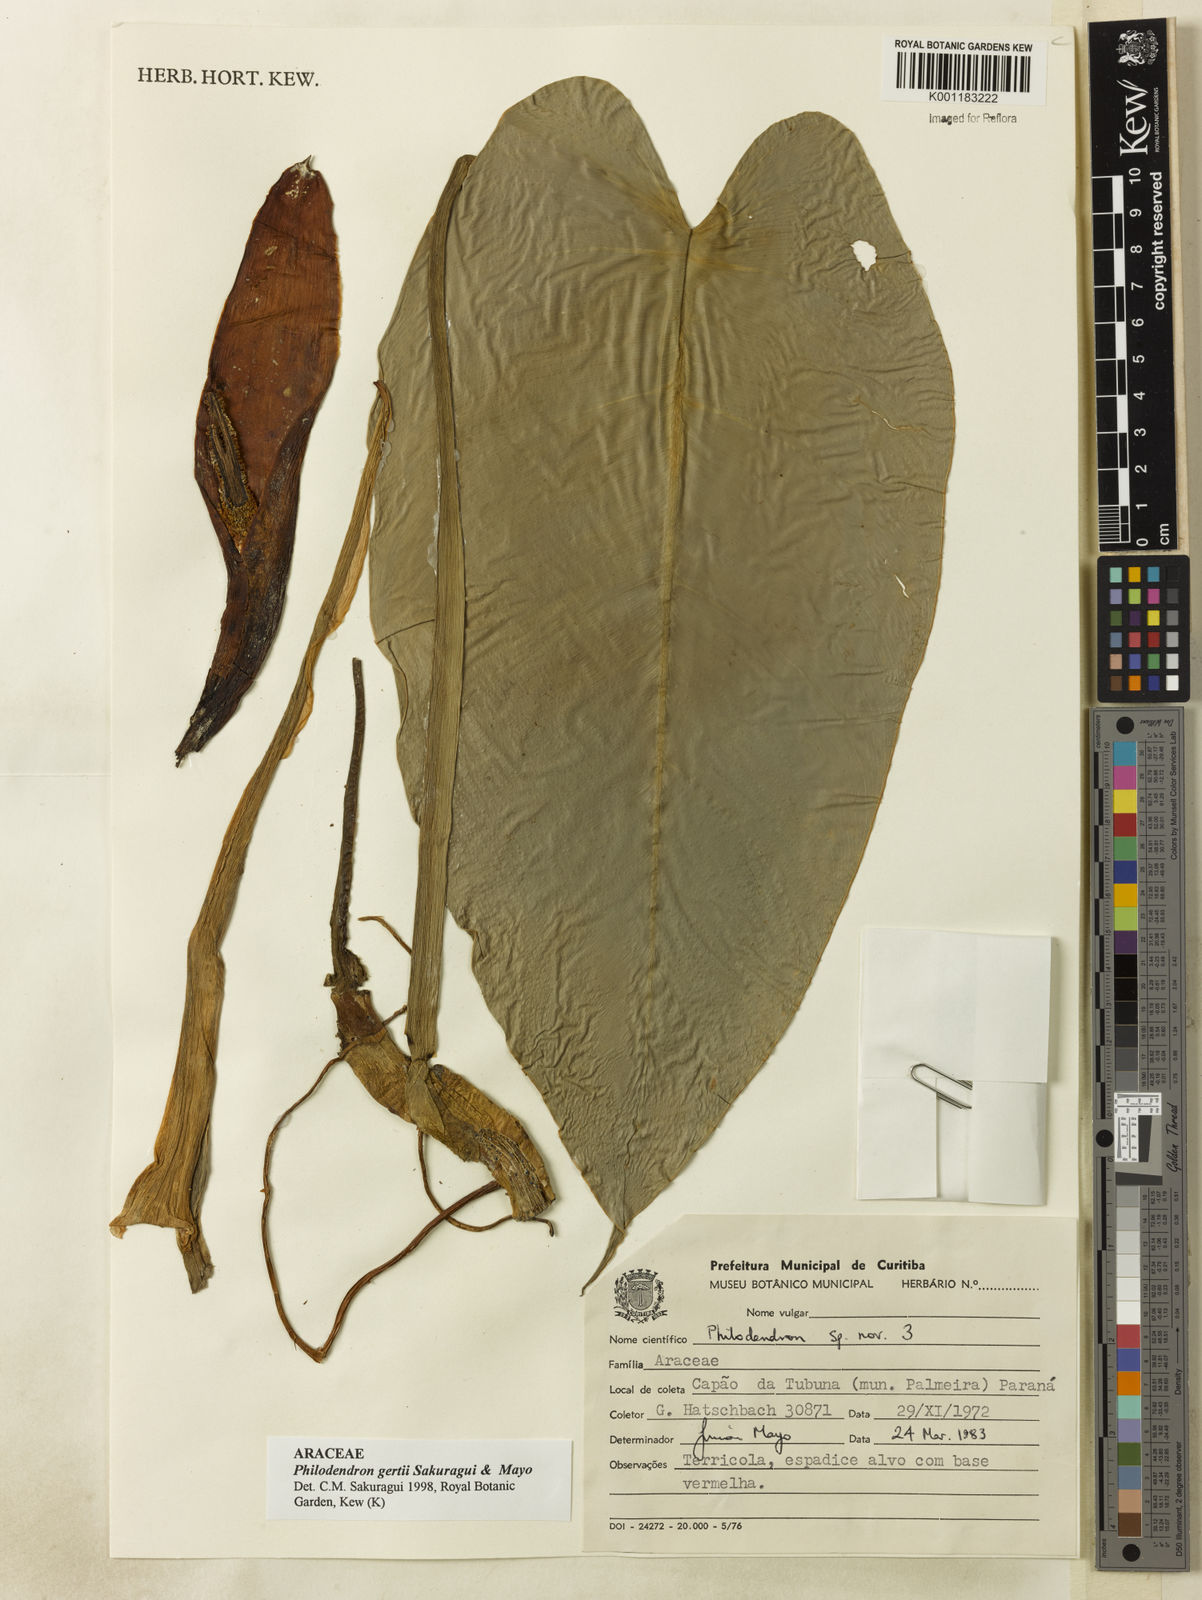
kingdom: Plantae
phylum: Tracheophyta
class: Liliopsida
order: Alismatales
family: Araceae
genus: Philodendron
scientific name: Philodendron
